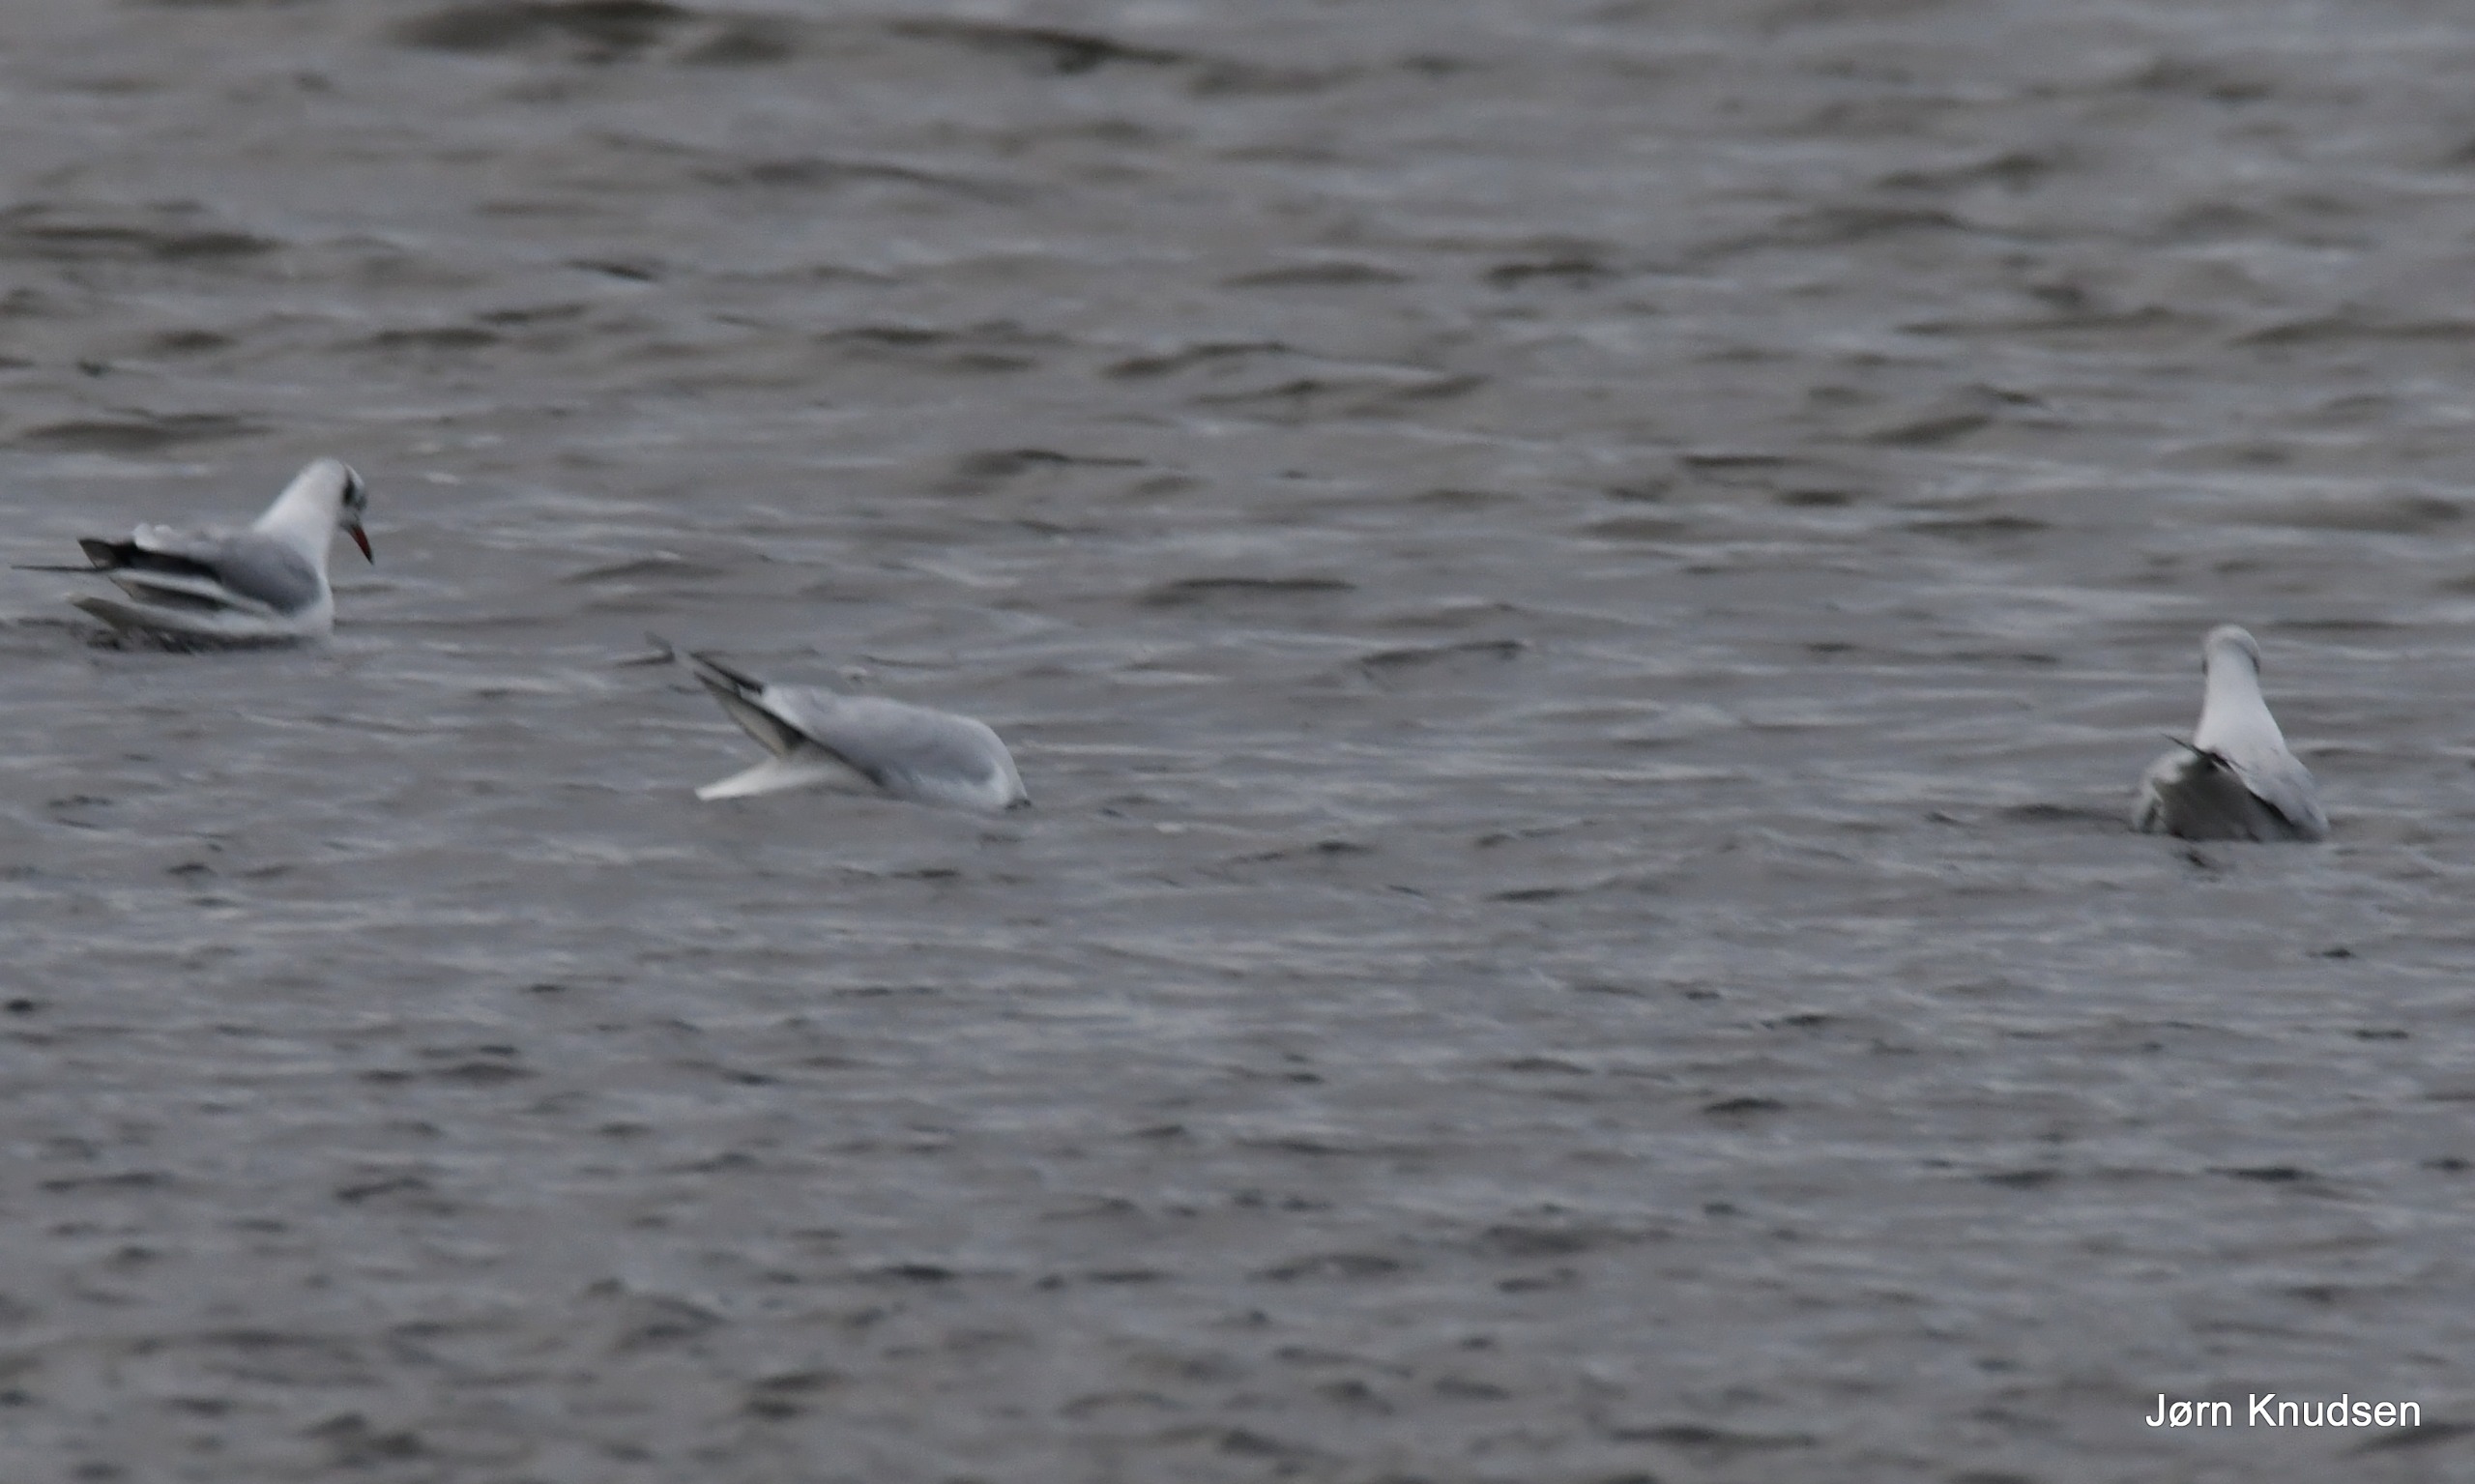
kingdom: Animalia
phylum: Chordata
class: Aves
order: Charadriiformes
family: Laridae
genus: Chroicocephalus
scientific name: Chroicocephalus ridibundus
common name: Hættemåge
